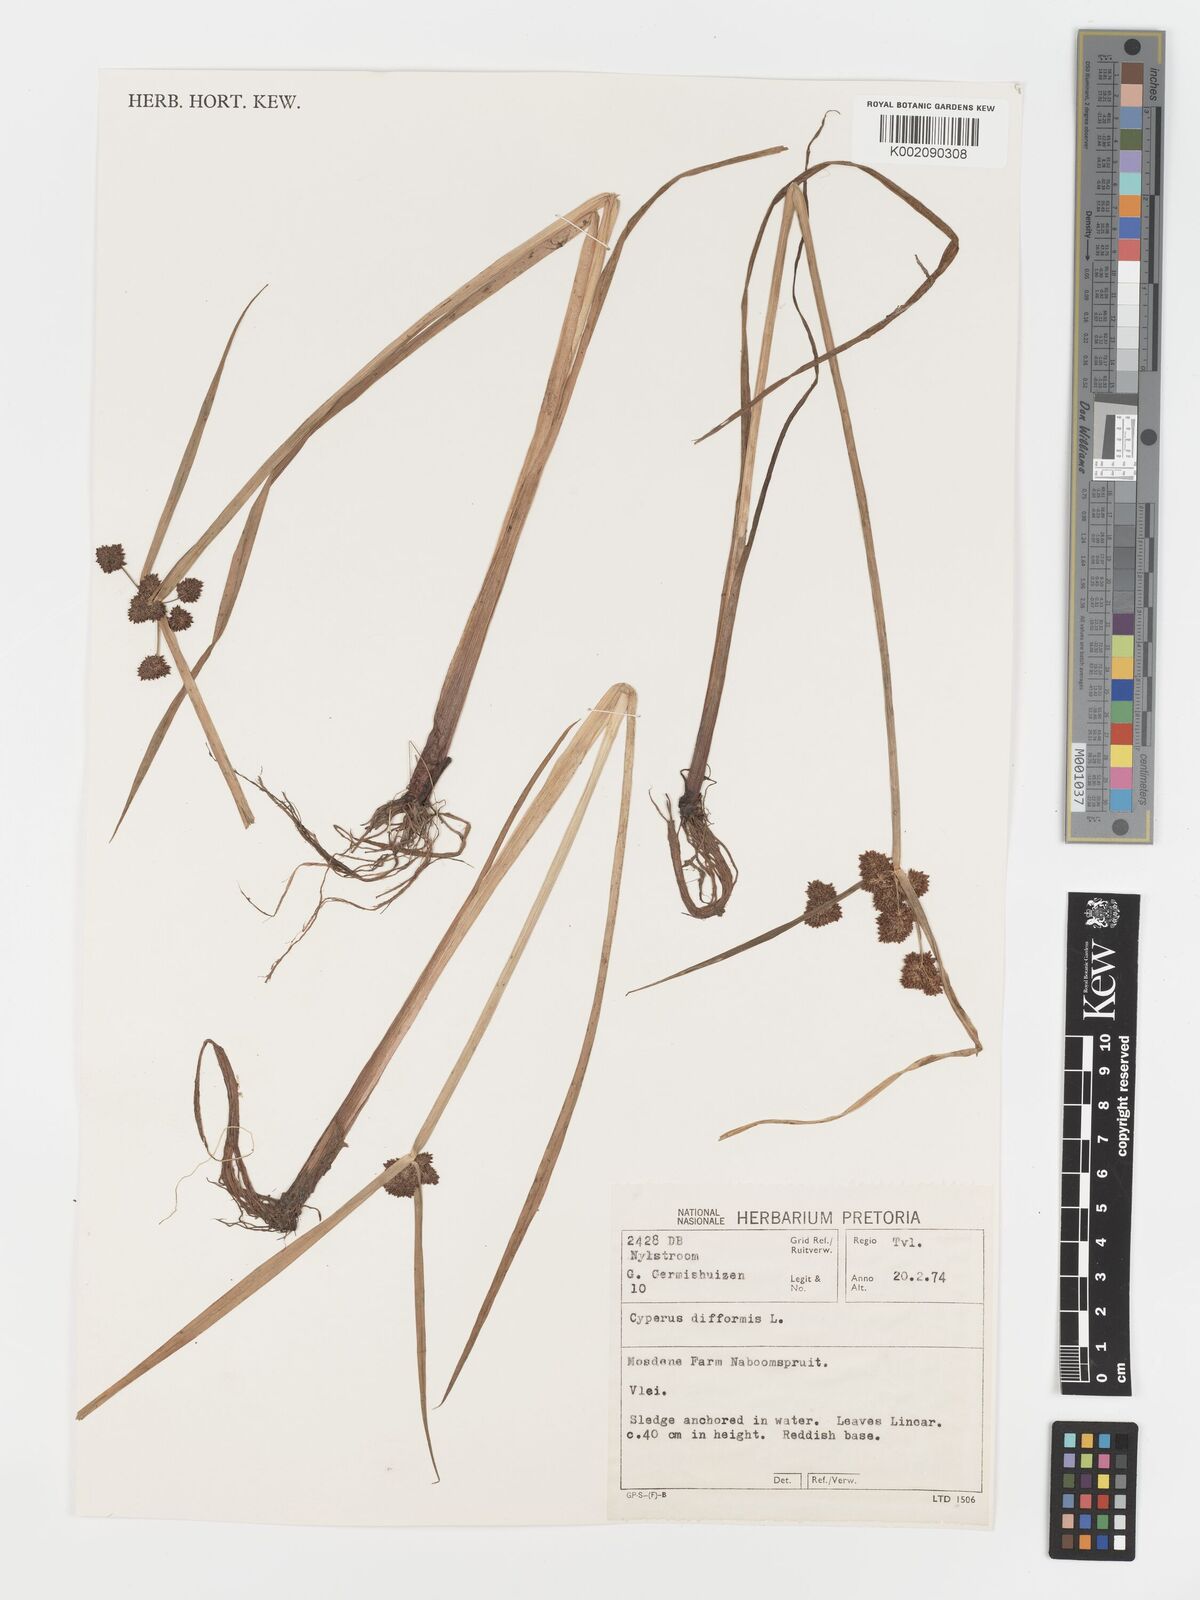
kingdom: Plantae
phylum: Tracheophyta
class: Liliopsida
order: Poales
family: Cyperaceae
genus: Cyperus
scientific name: Cyperus difformis
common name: Variable flatsedge
